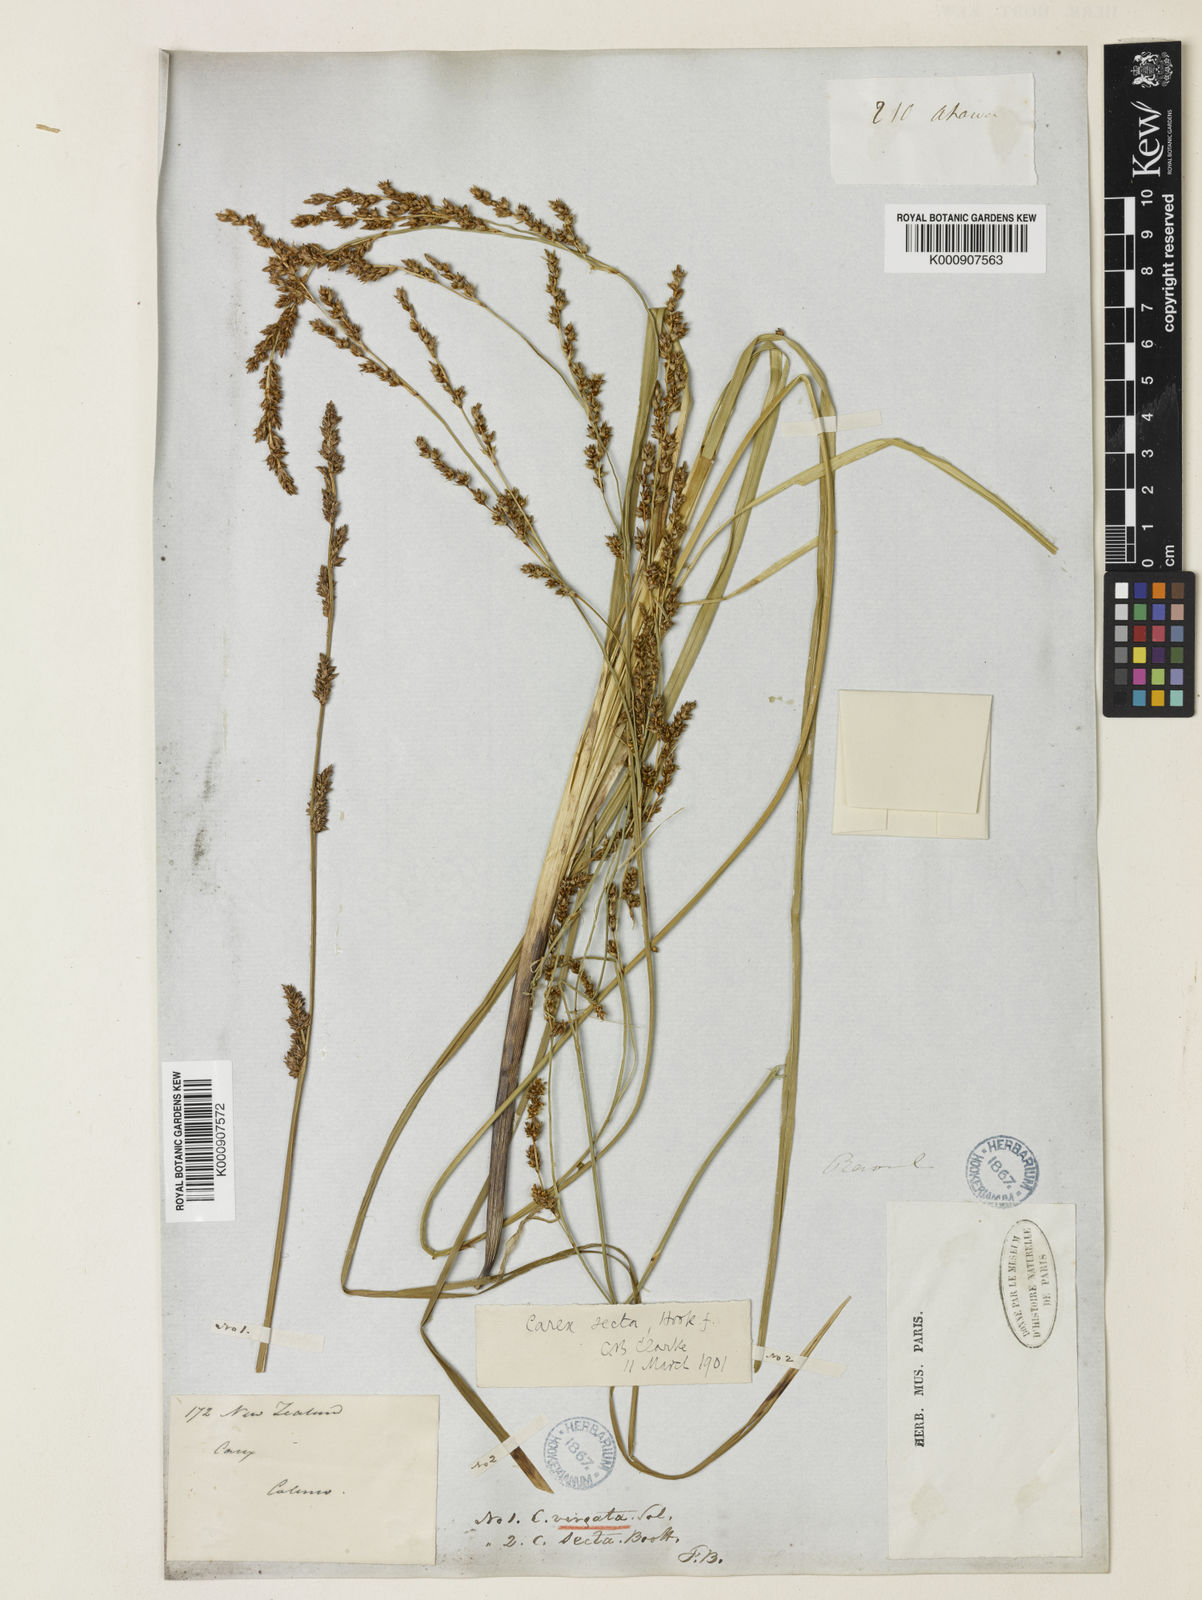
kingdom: Plantae
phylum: Tracheophyta
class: Liliopsida
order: Poales
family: Cyperaceae
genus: Carex
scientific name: Carex appressa
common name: Tussock sedge
